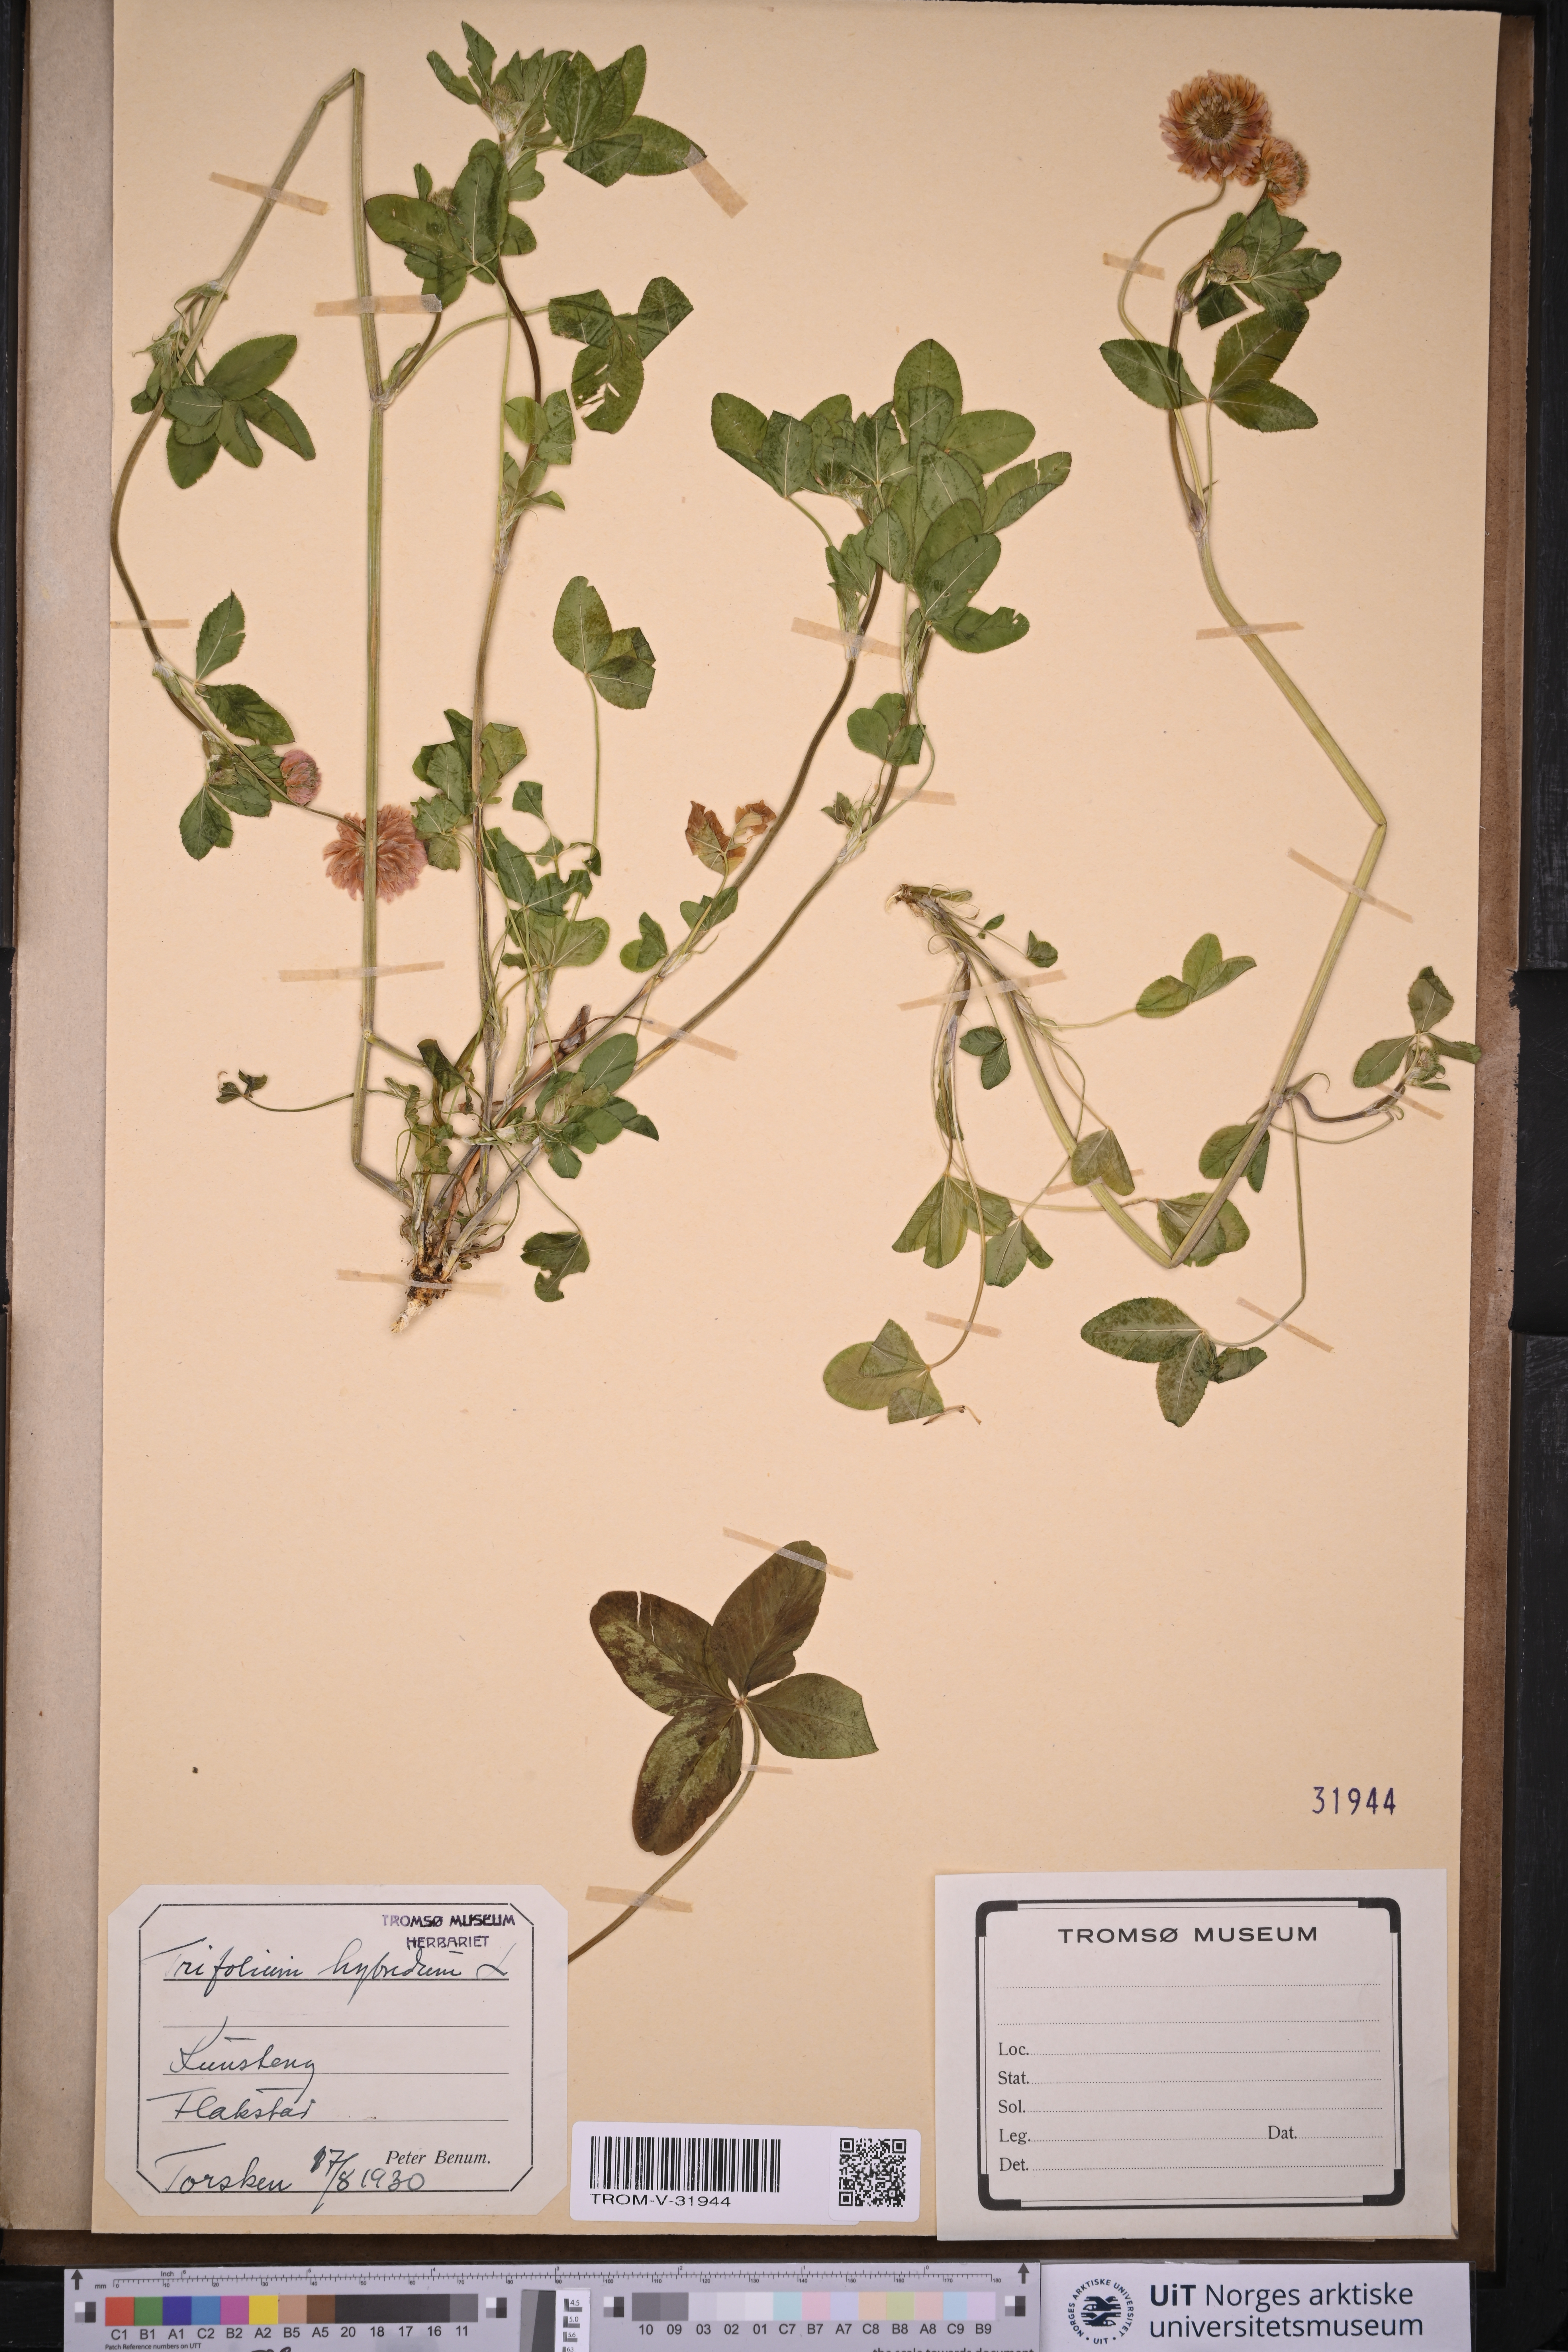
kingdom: Plantae
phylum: Tracheophyta
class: Magnoliopsida
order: Fabales
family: Fabaceae
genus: Trifolium
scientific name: Trifolium hybridum
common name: Alsike clover
